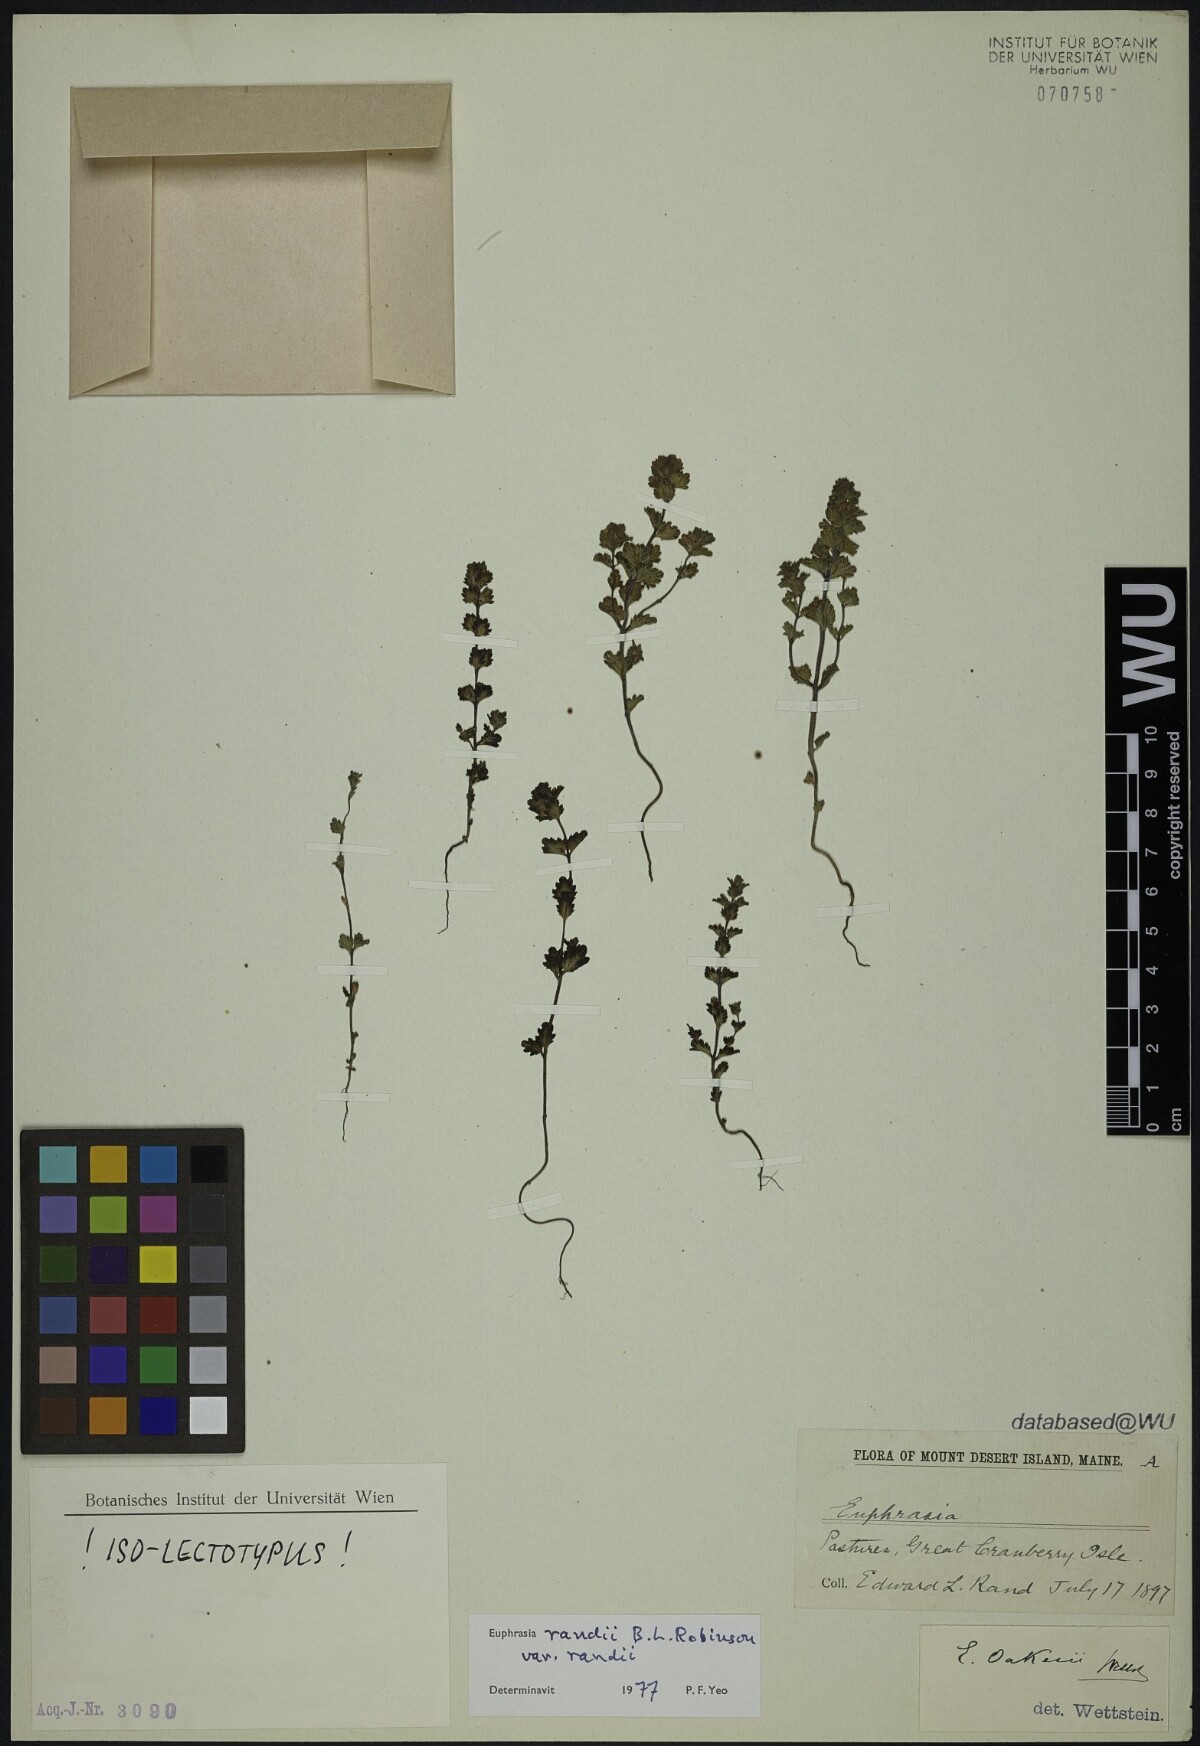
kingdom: Plantae
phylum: Tracheophyta
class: Magnoliopsida
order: Lamiales
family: Orobanchaceae
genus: Euphrasia
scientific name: Euphrasia randii
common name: Rand's eyebright
